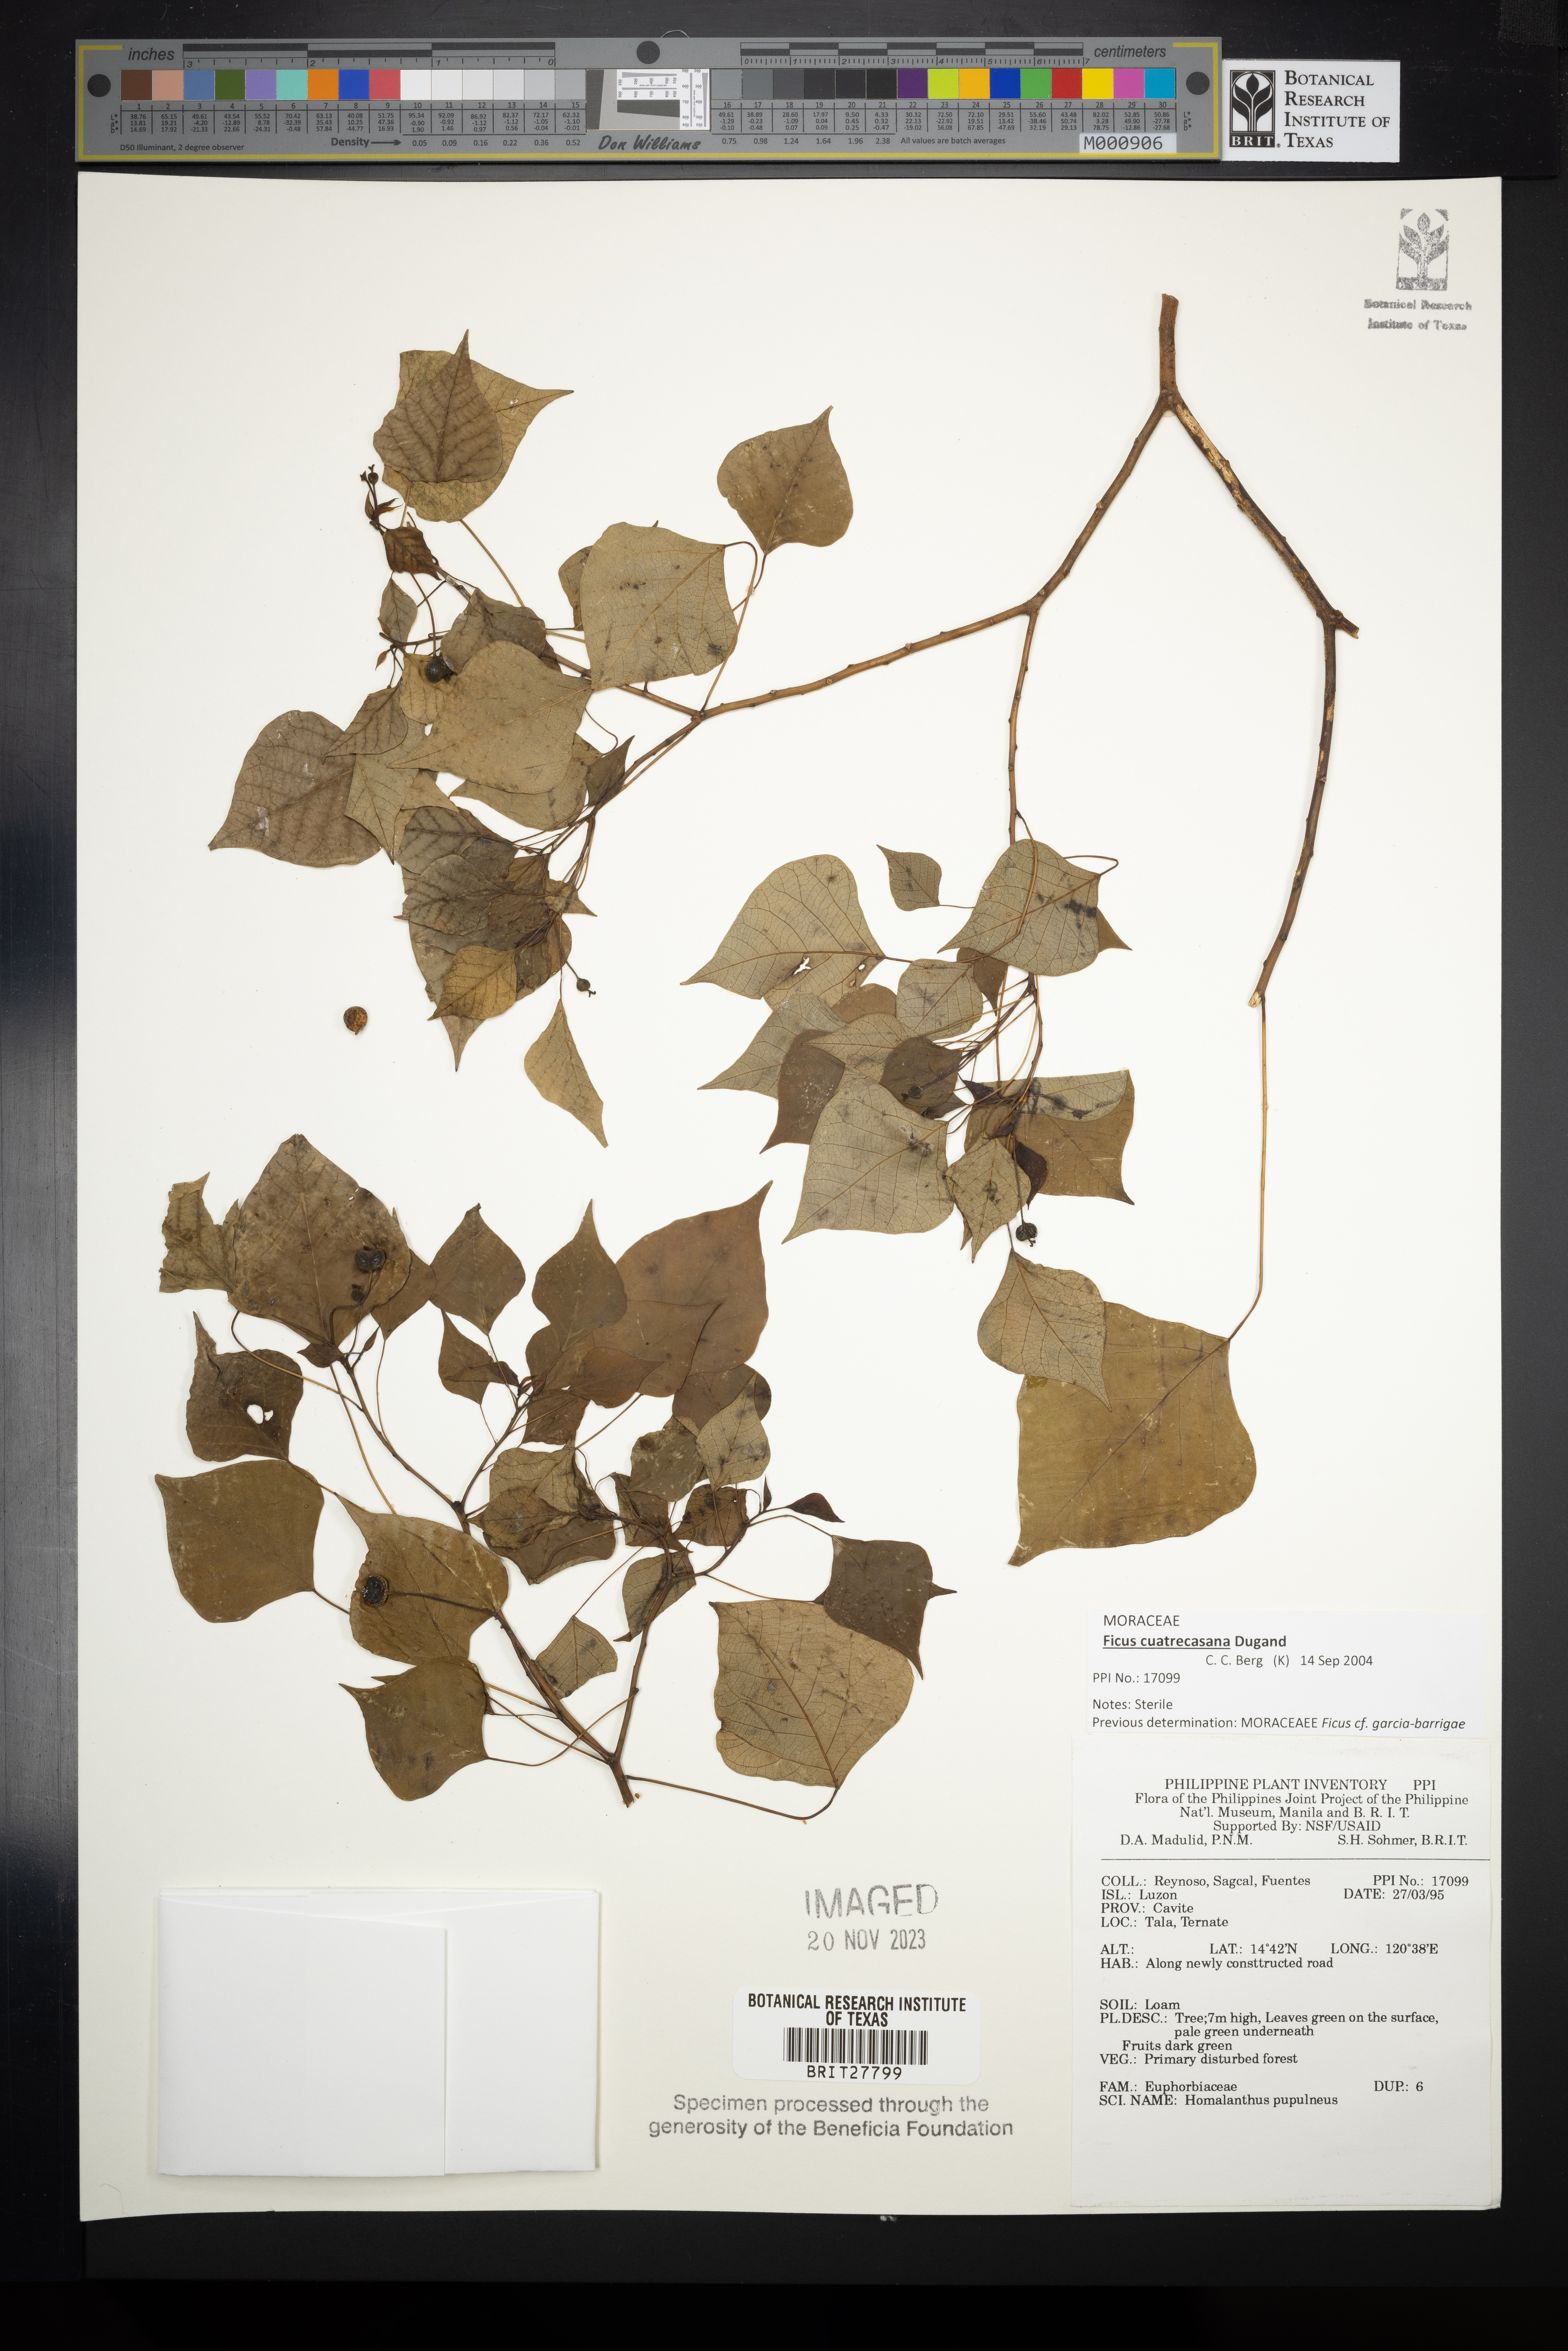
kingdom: Plantae
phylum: Tracheophyta
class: Magnoliopsida
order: Malpighiales
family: Euphorbiaceae
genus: Homalanthus
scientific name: Homalanthus populneus
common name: Spurge
